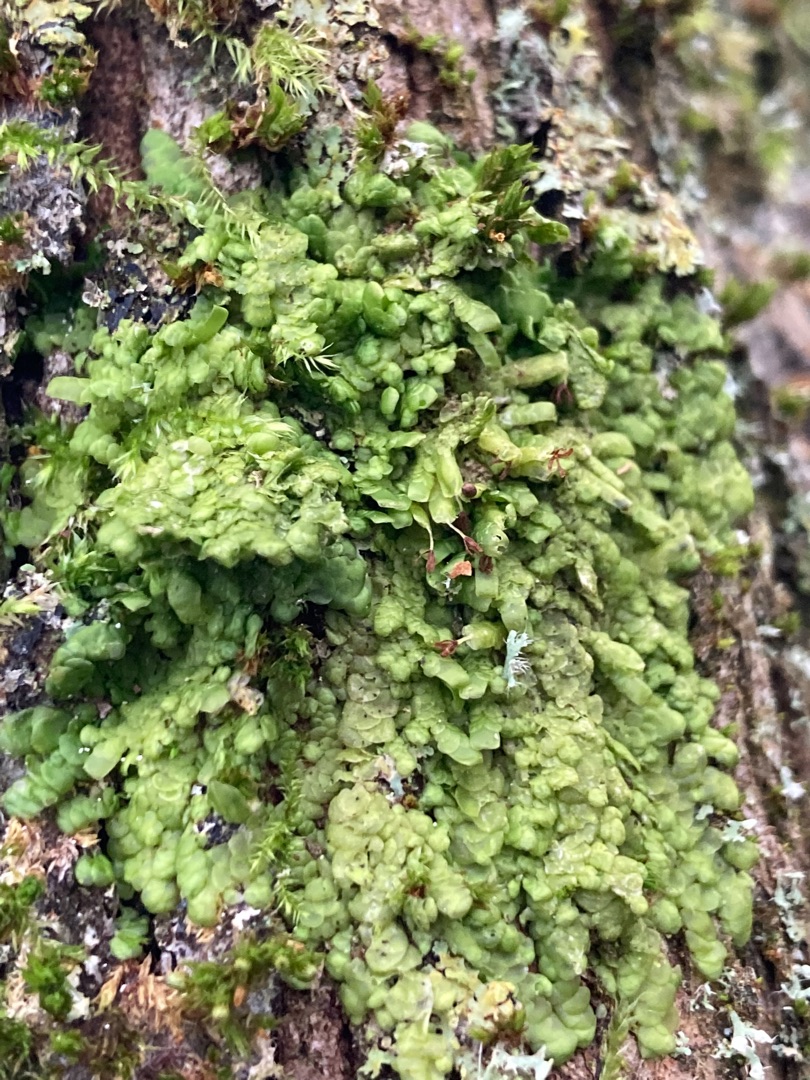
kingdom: Plantae
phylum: Marchantiophyta
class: Jungermanniopsida
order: Porellales
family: Radulaceae
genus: Radula
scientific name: Radula complanata
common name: Almindelig spartelmos
